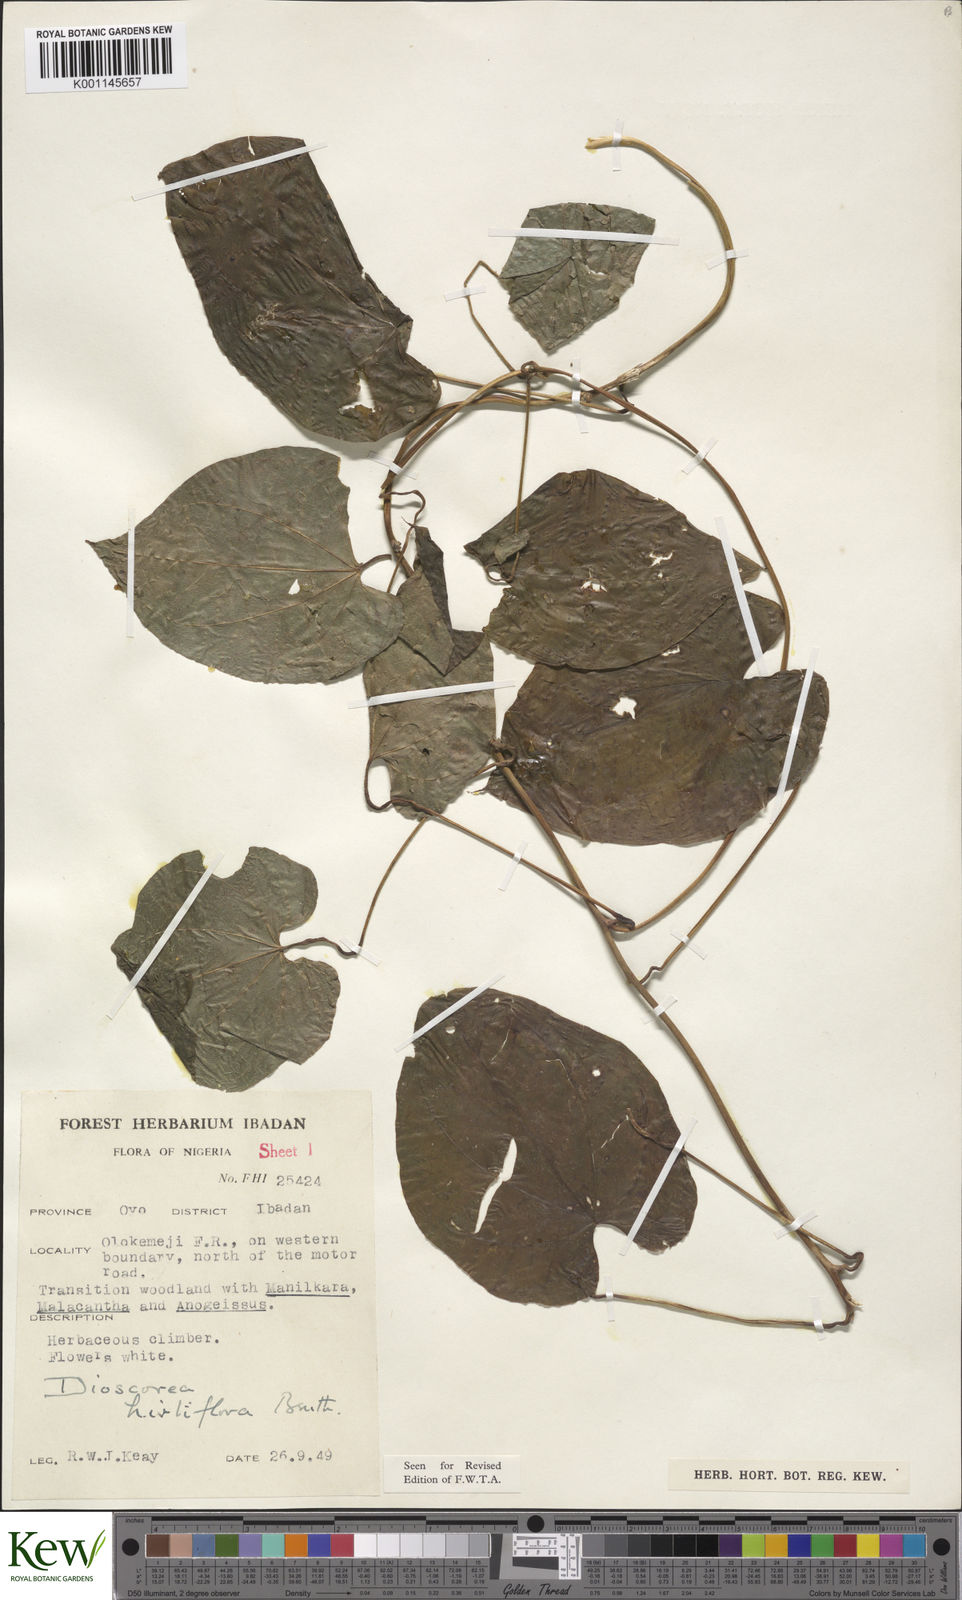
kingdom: Plantae
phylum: Tracheophyta
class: Liliopsida
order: Dioscoreales
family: Dioscoreaceae
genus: Dioscorea
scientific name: Dioscorea hirtiflora
